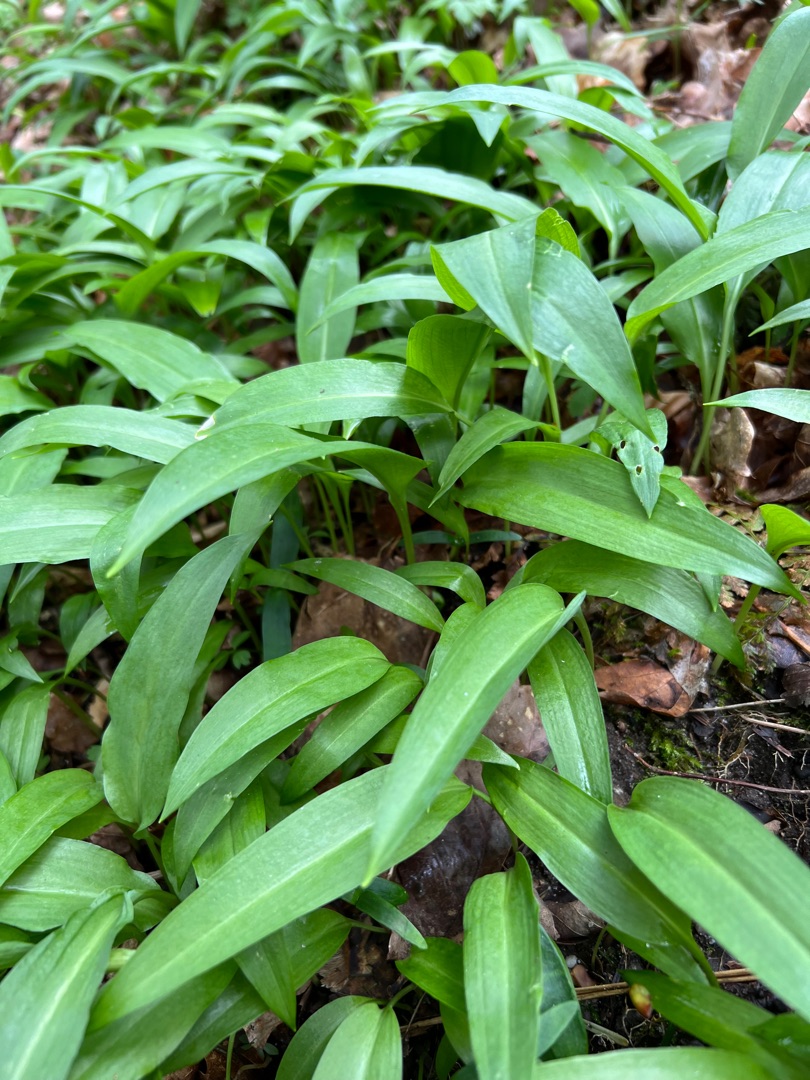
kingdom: Plantae
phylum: Tracheophyta
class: Liliopsida
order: Asparagales
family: Amaryllidaceae
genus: Allium
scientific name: Allium ursinum
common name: Rams-løg
